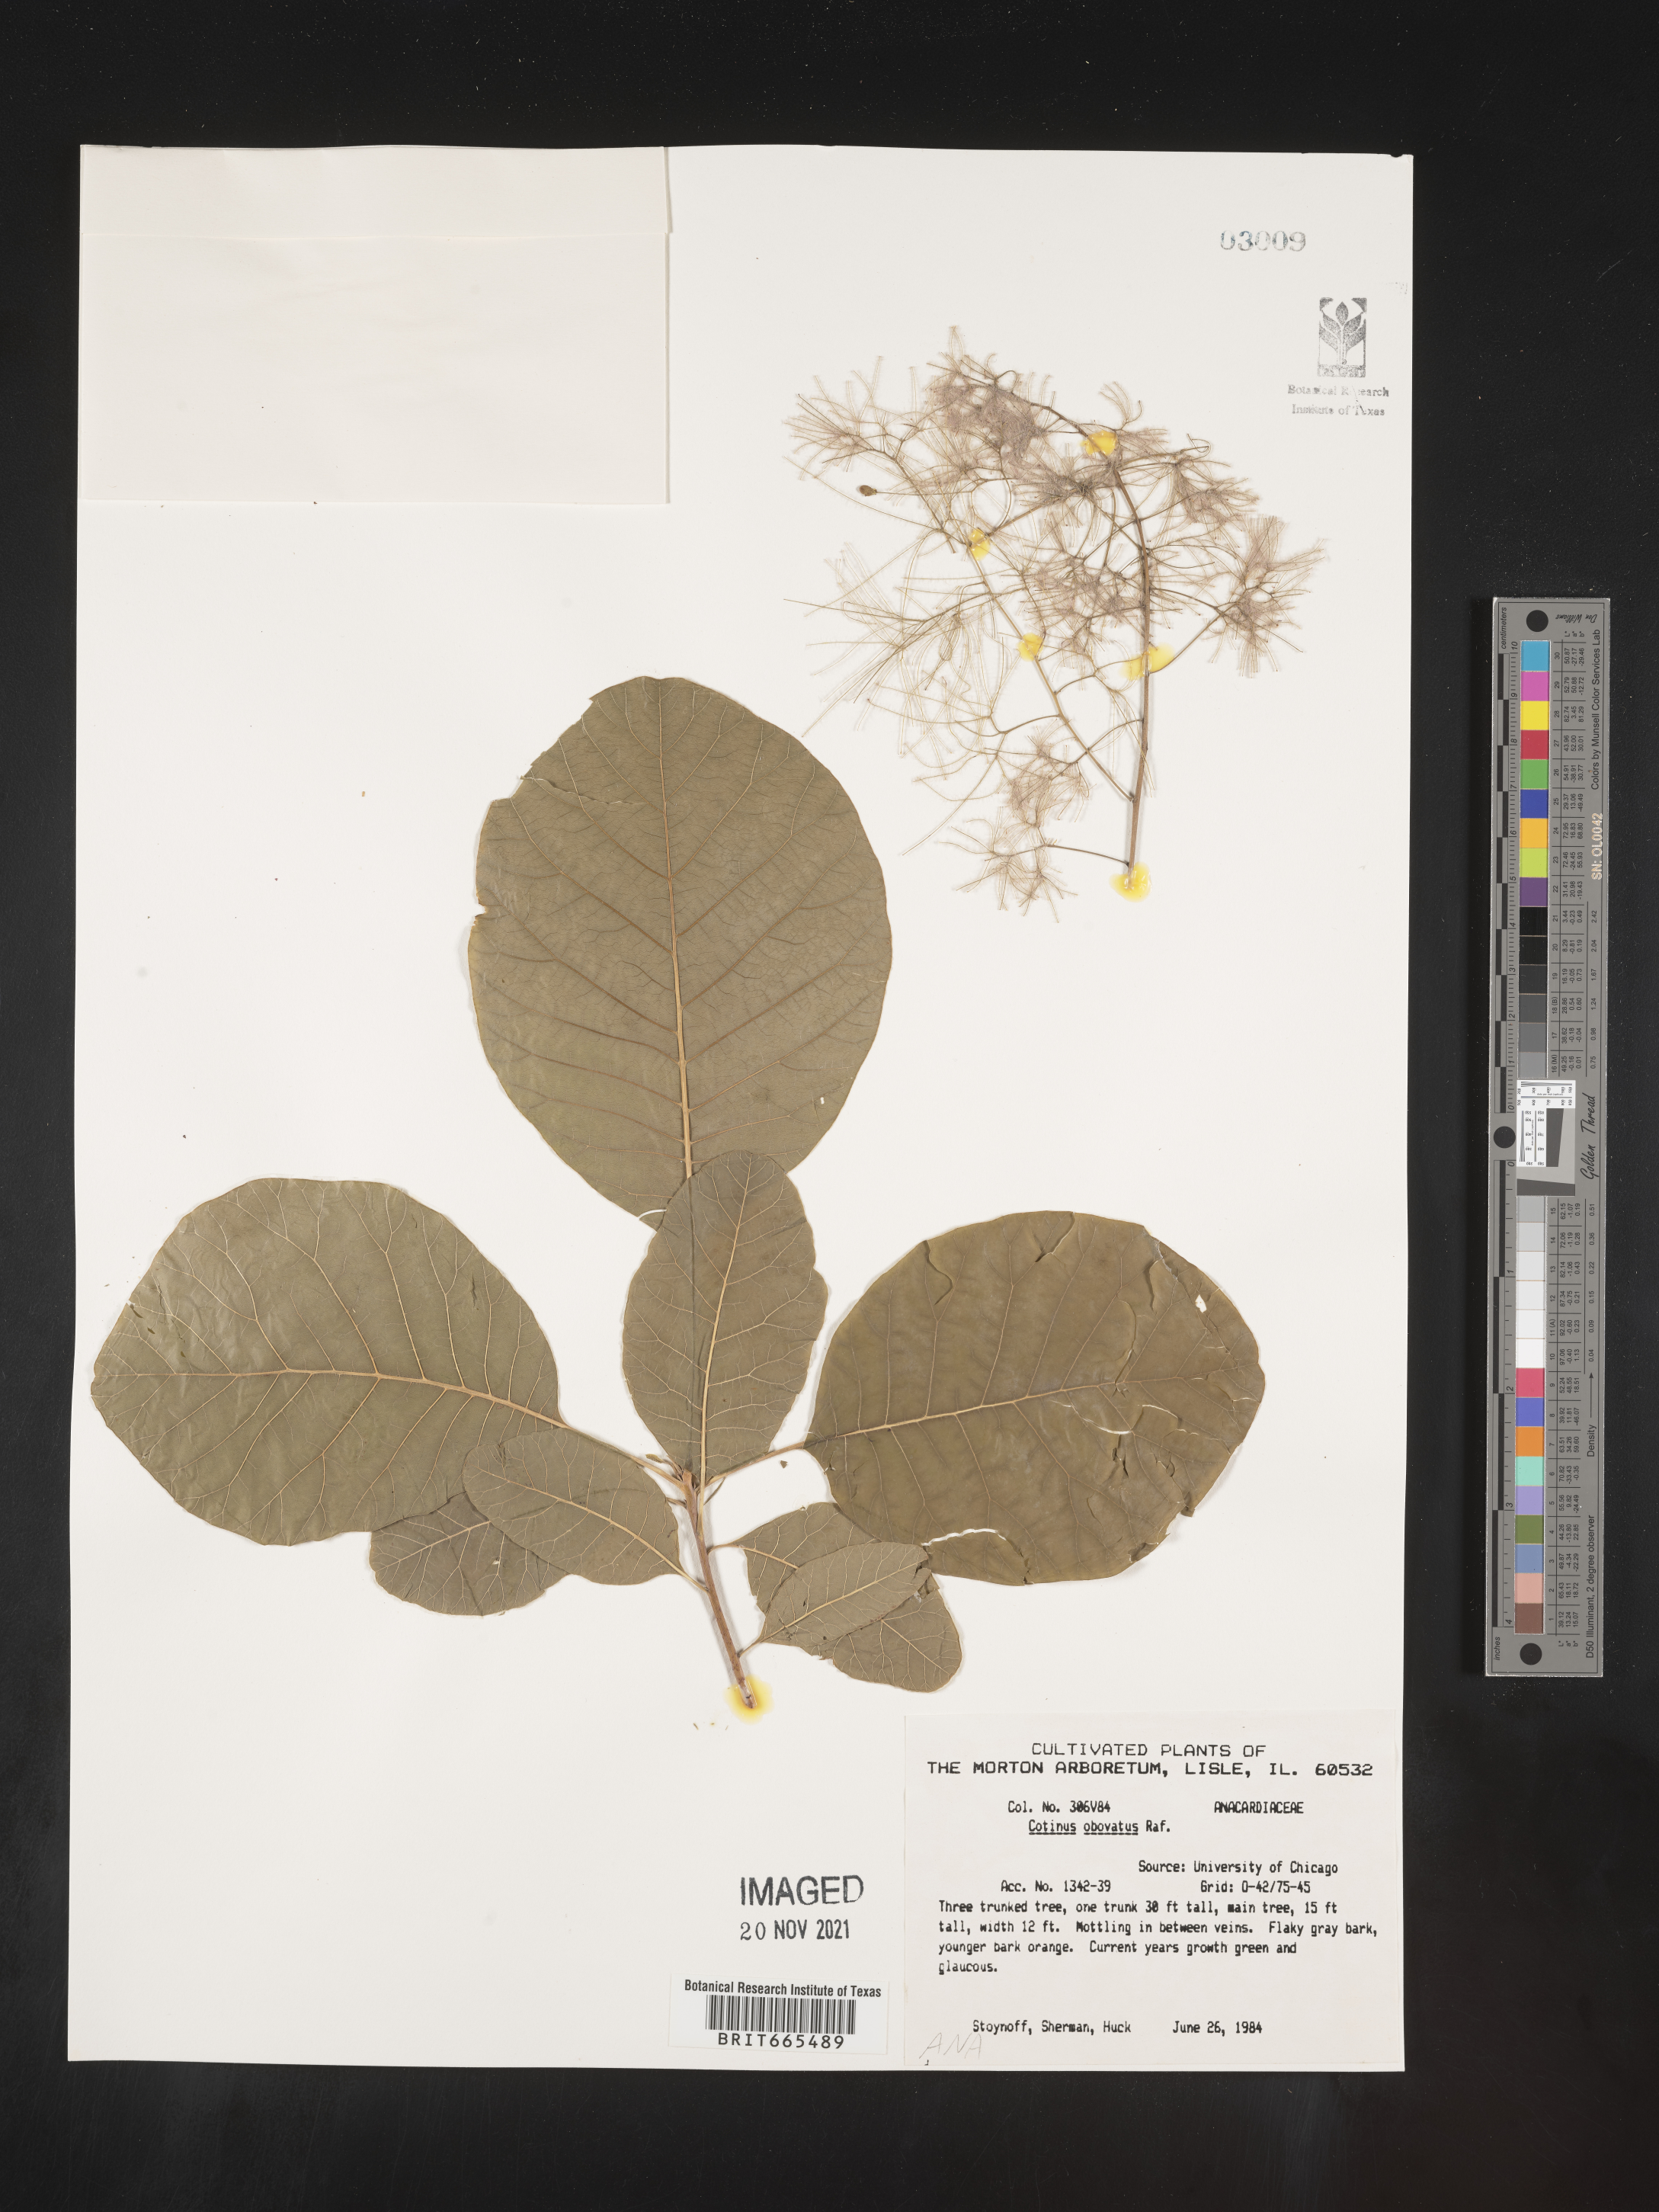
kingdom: Plantae
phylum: Tracheophyta
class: Magnoliopsida
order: Sapindales
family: Anacardiaceae
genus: Cotinus
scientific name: Cotinus
